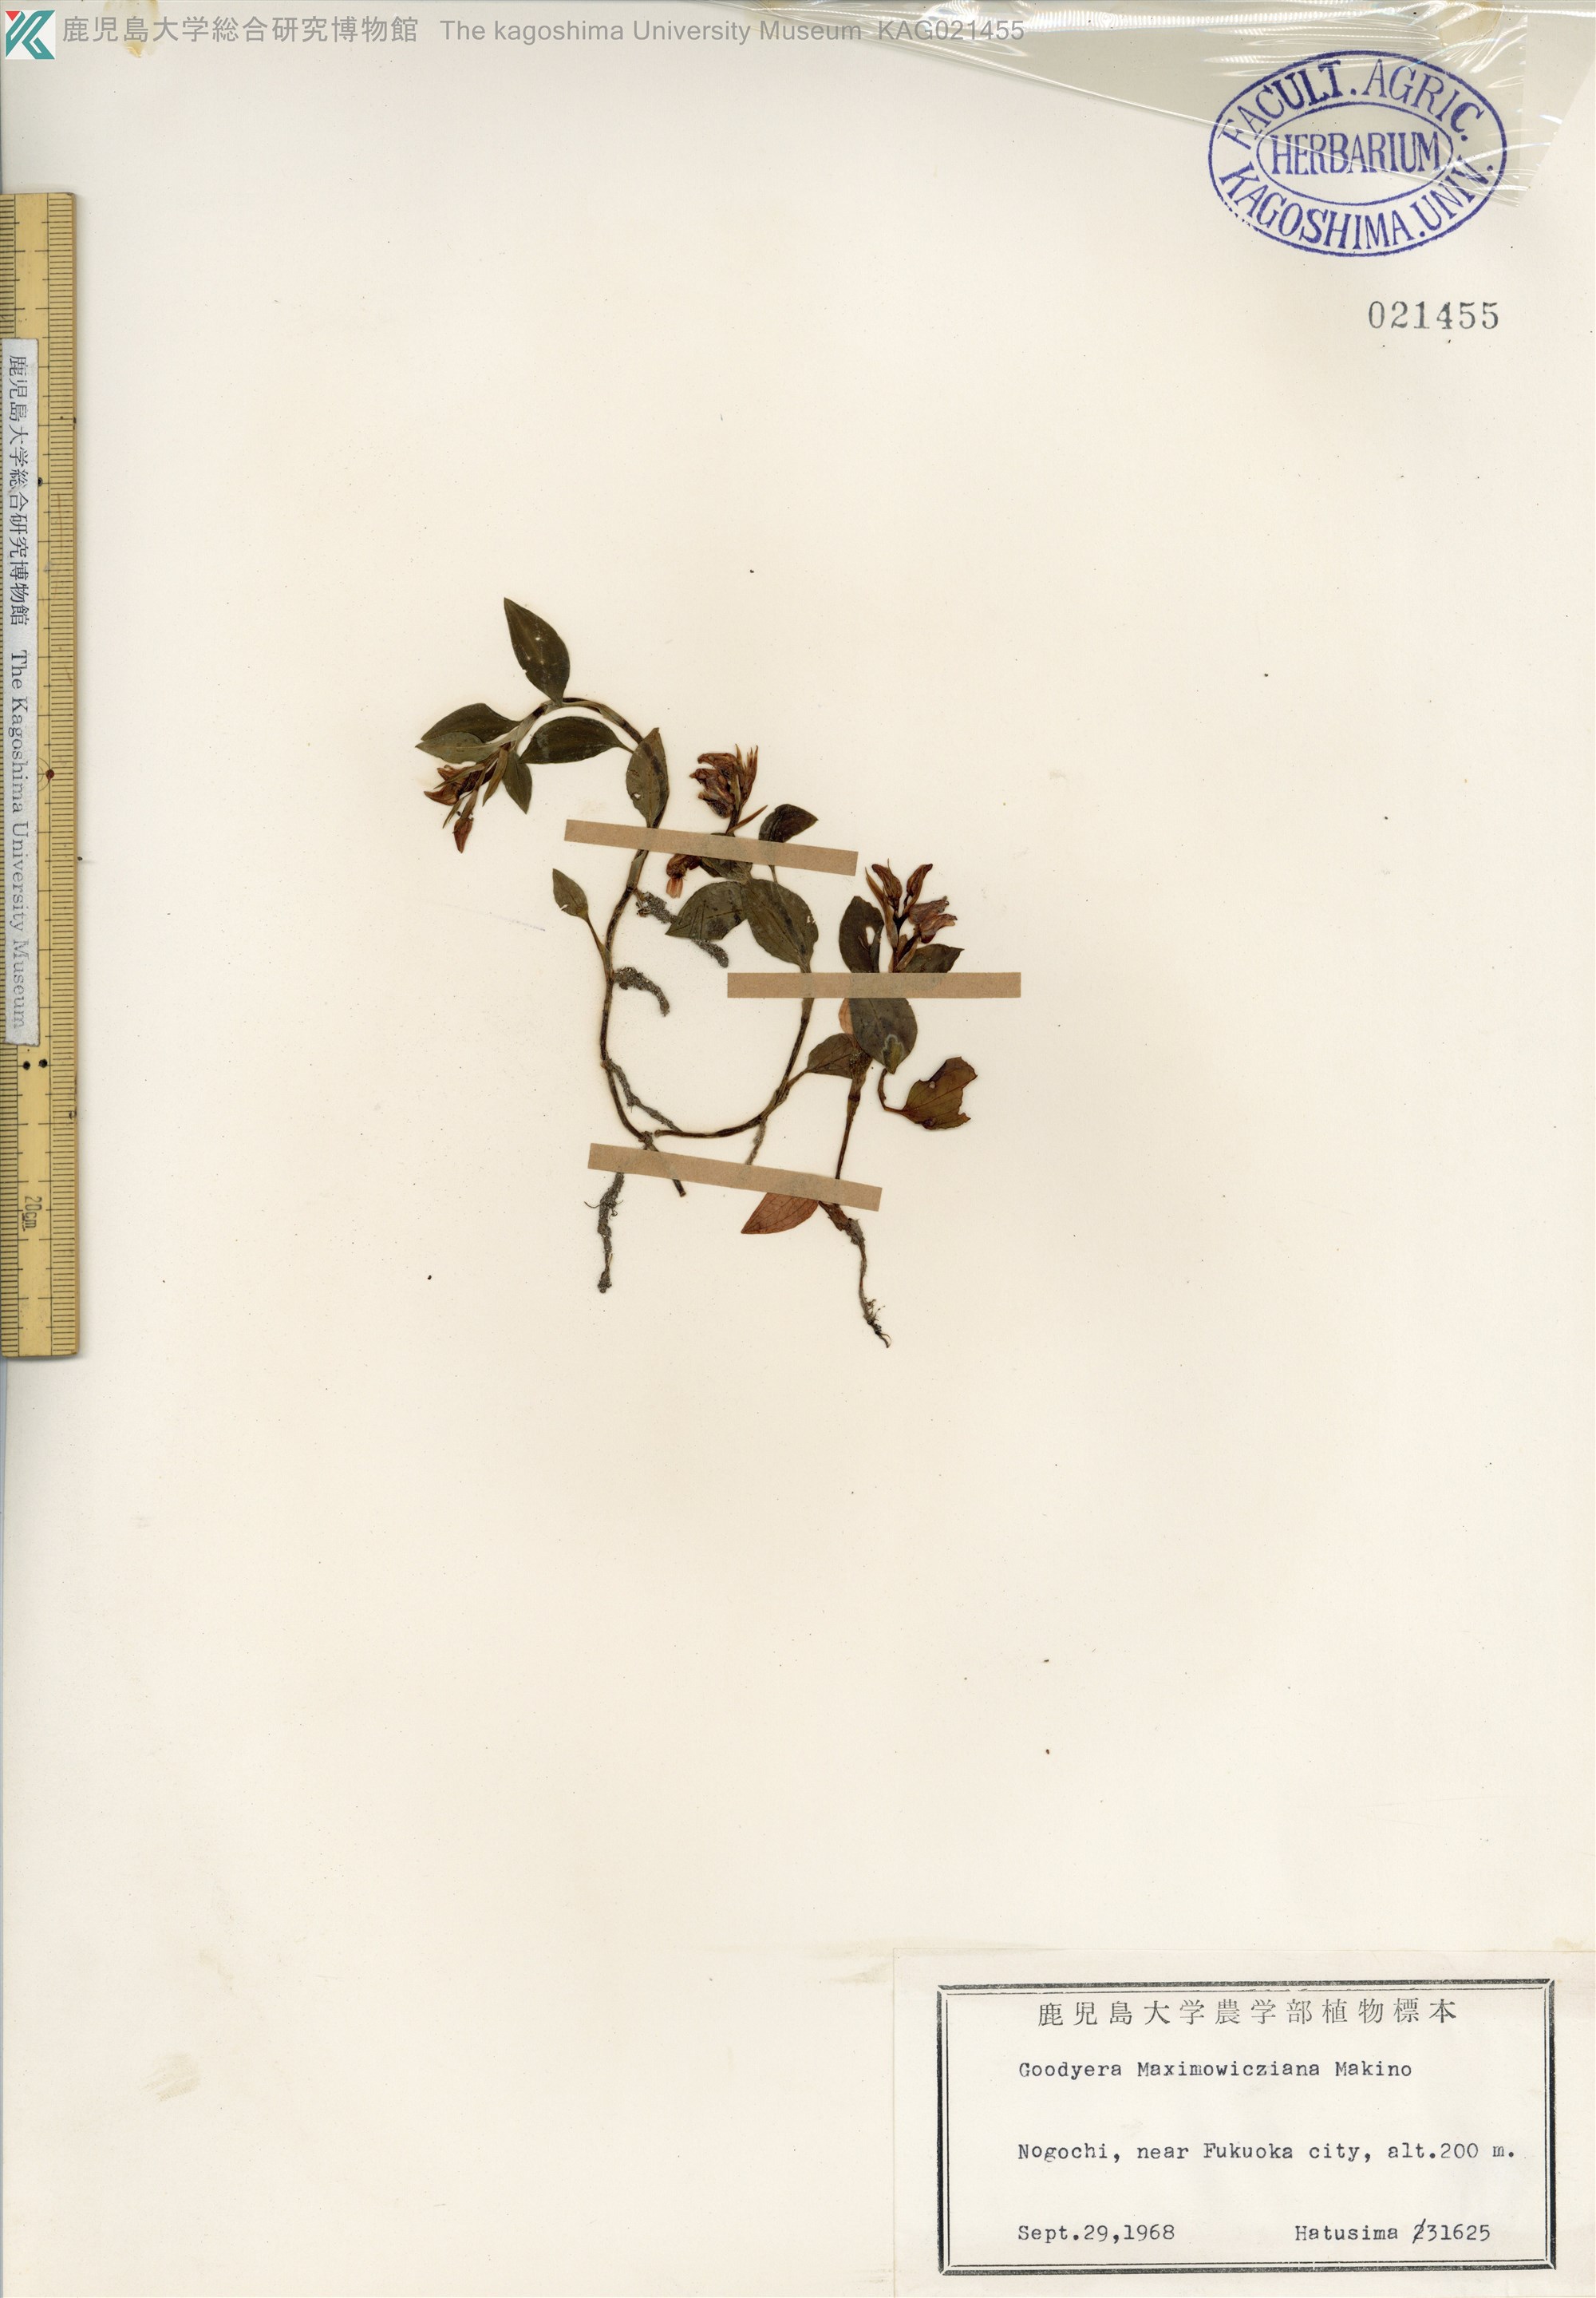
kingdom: Plantae
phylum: Tracheophyta
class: Liliopsida
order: Asparagales
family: Orchidaceae
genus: Goodyera
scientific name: Goodyera henryi
